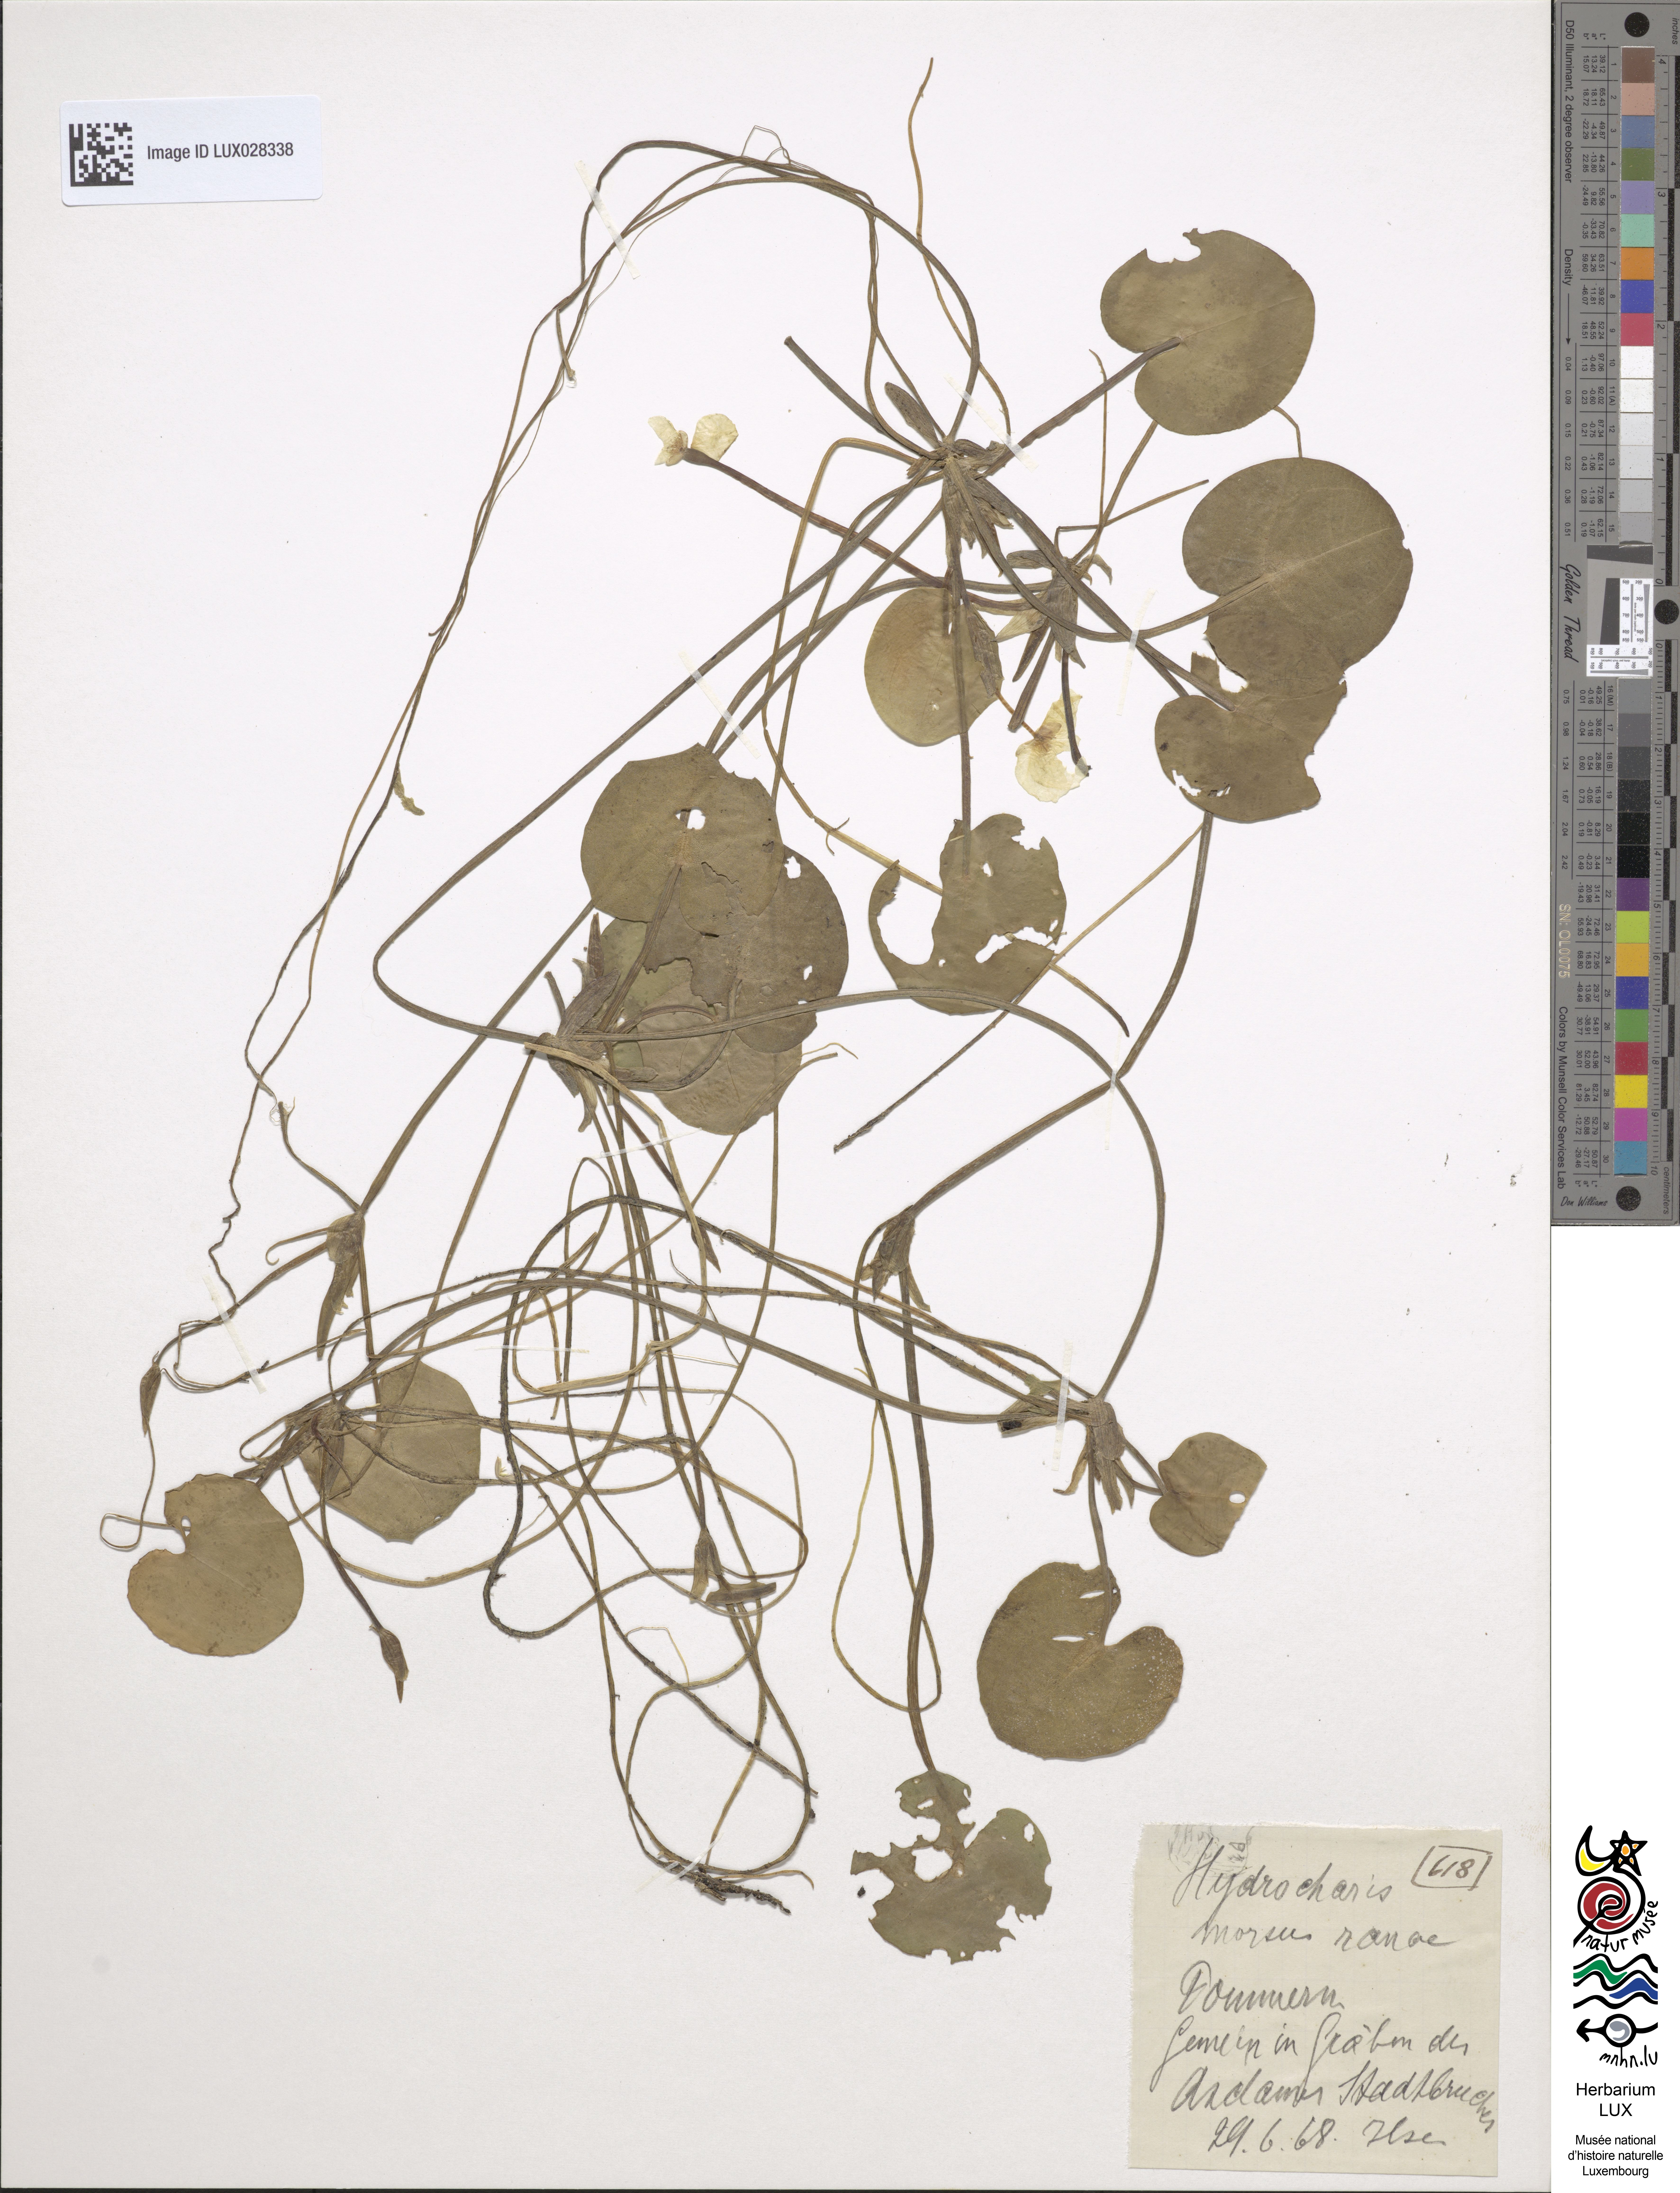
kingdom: Plantae
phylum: Tracheophyta
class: Liliopsida
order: Alismatales
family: Hydrocharitaceae
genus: Hydrocharis
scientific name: Hydrocharis morsus-ranae
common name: Frogbit
